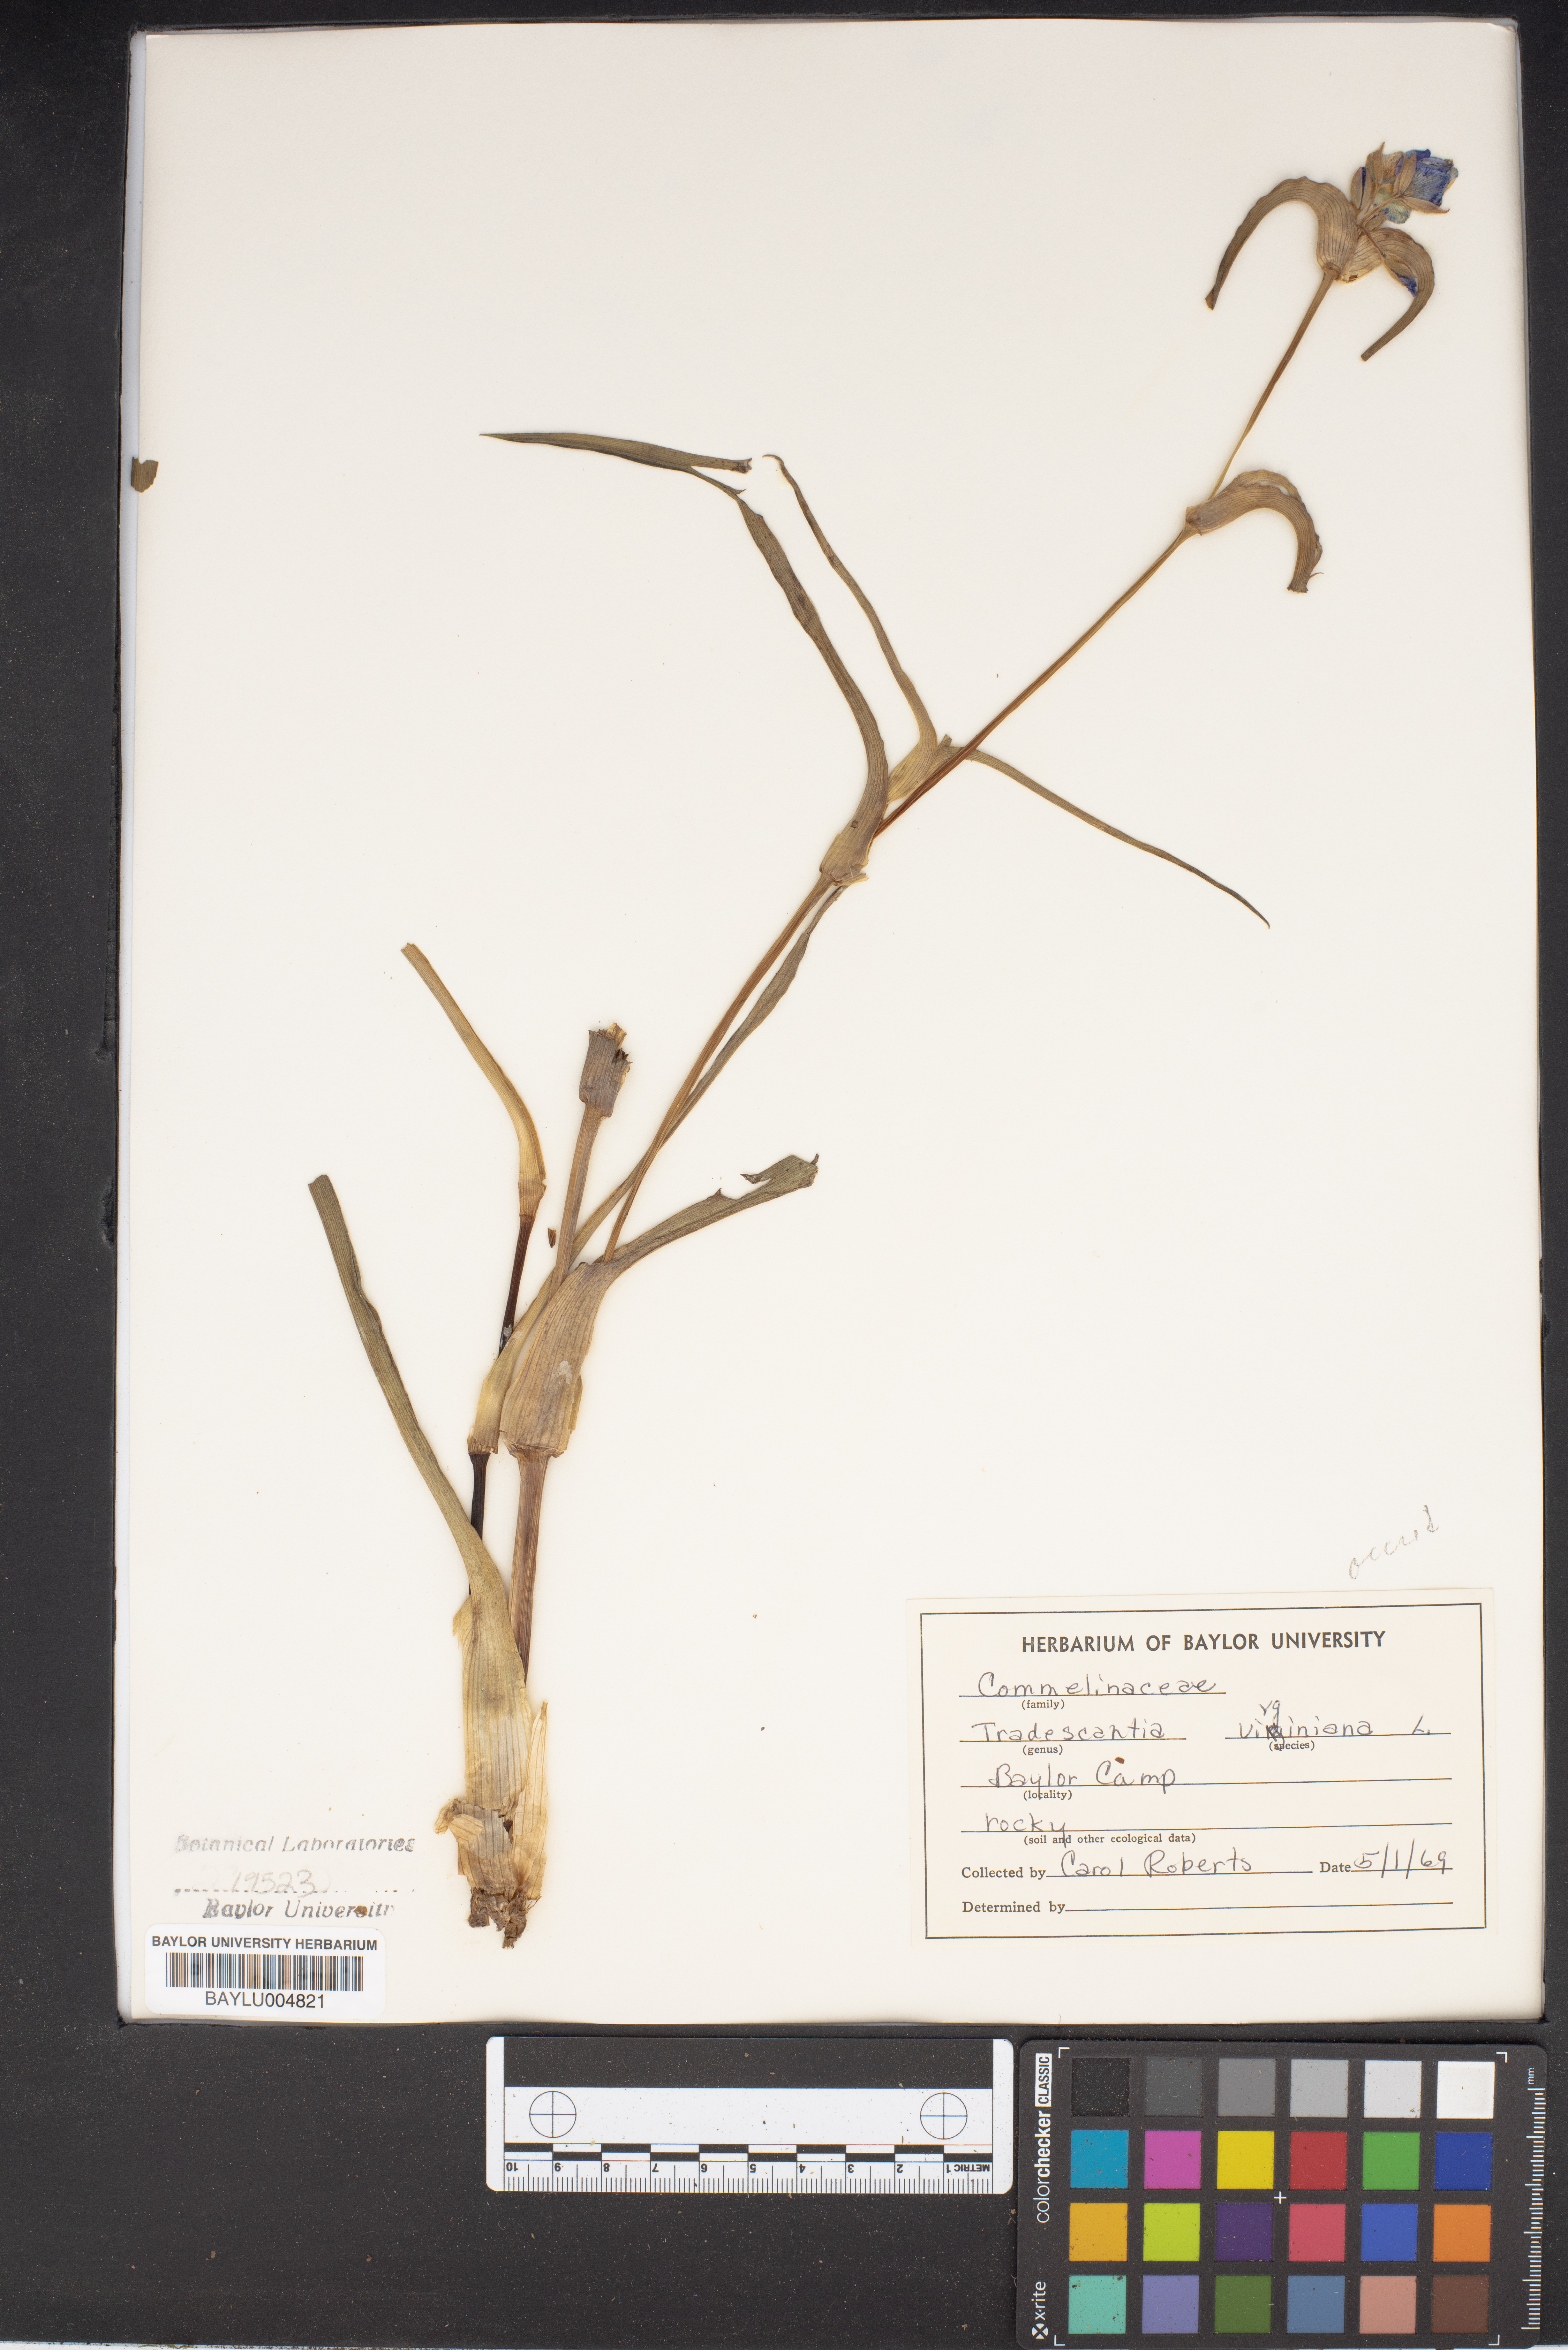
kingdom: Plantae
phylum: Tracheophyta
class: Liliopsida
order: Commelinales
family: Commelinaceae
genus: Tradescantia
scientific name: Tradescantia virginiana
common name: Spiderwort
